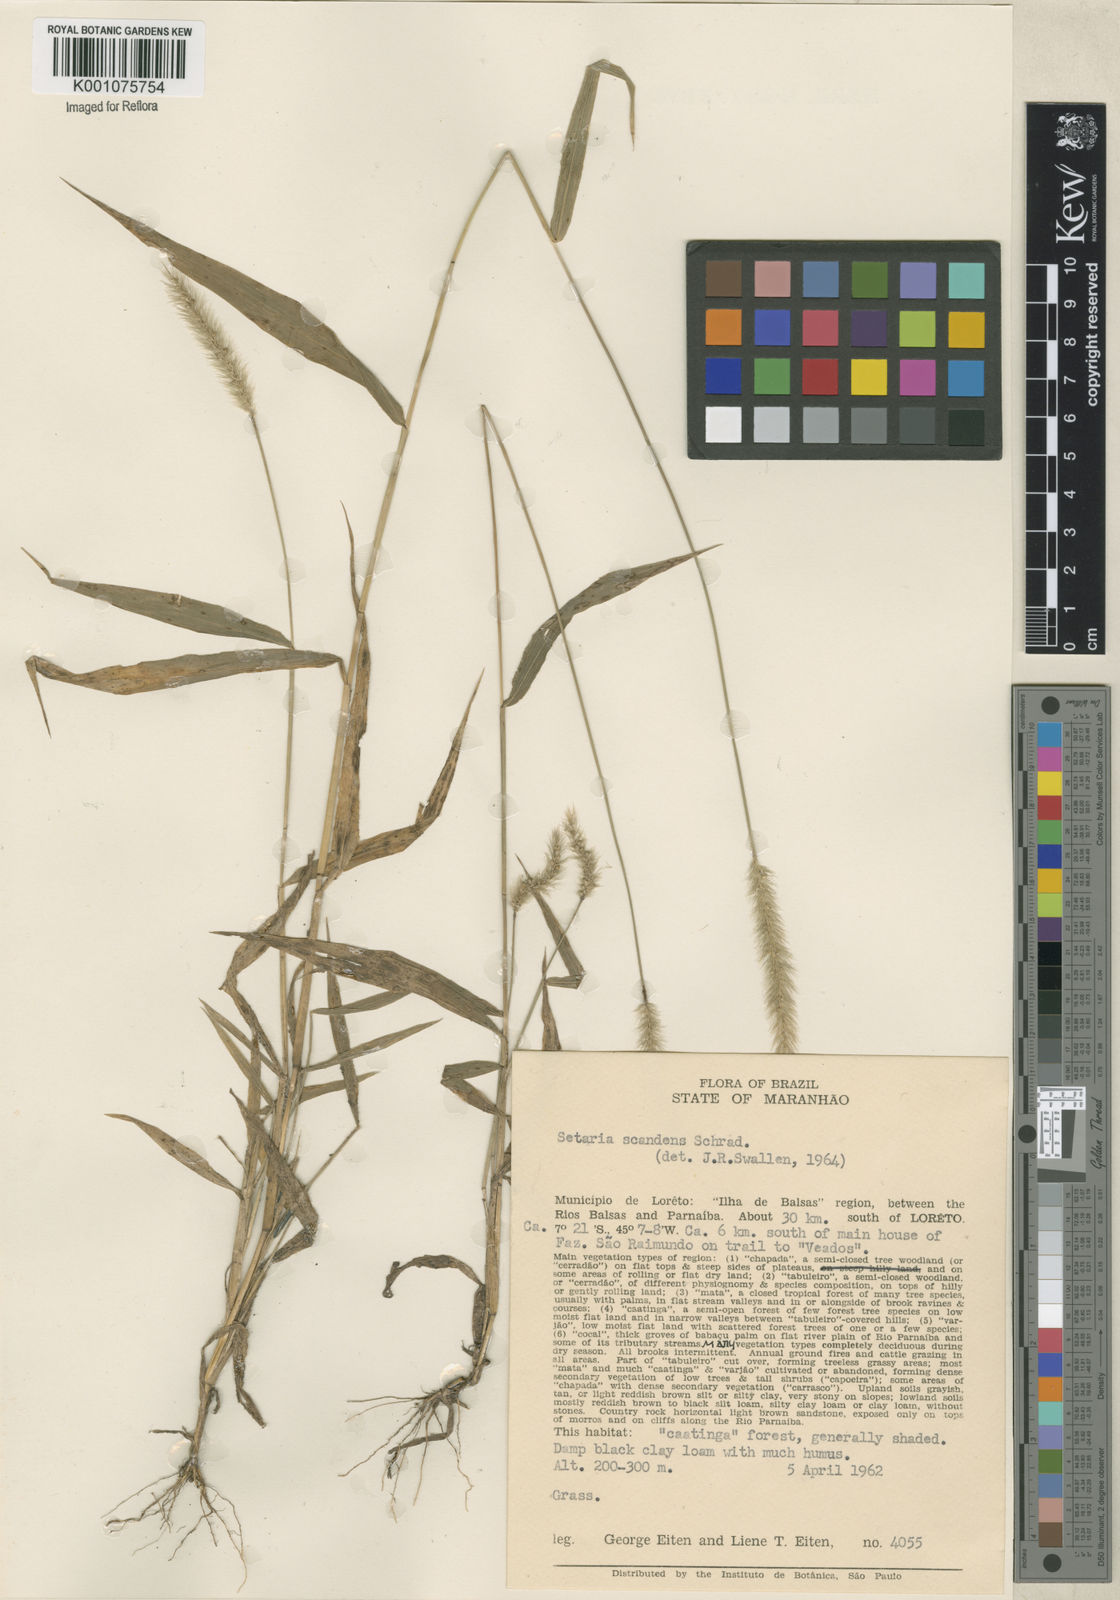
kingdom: Plantae
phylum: Tracheophyta
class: Liliopsida
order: Poales
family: Poaceae
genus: Setaria
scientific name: Setaria scandens
